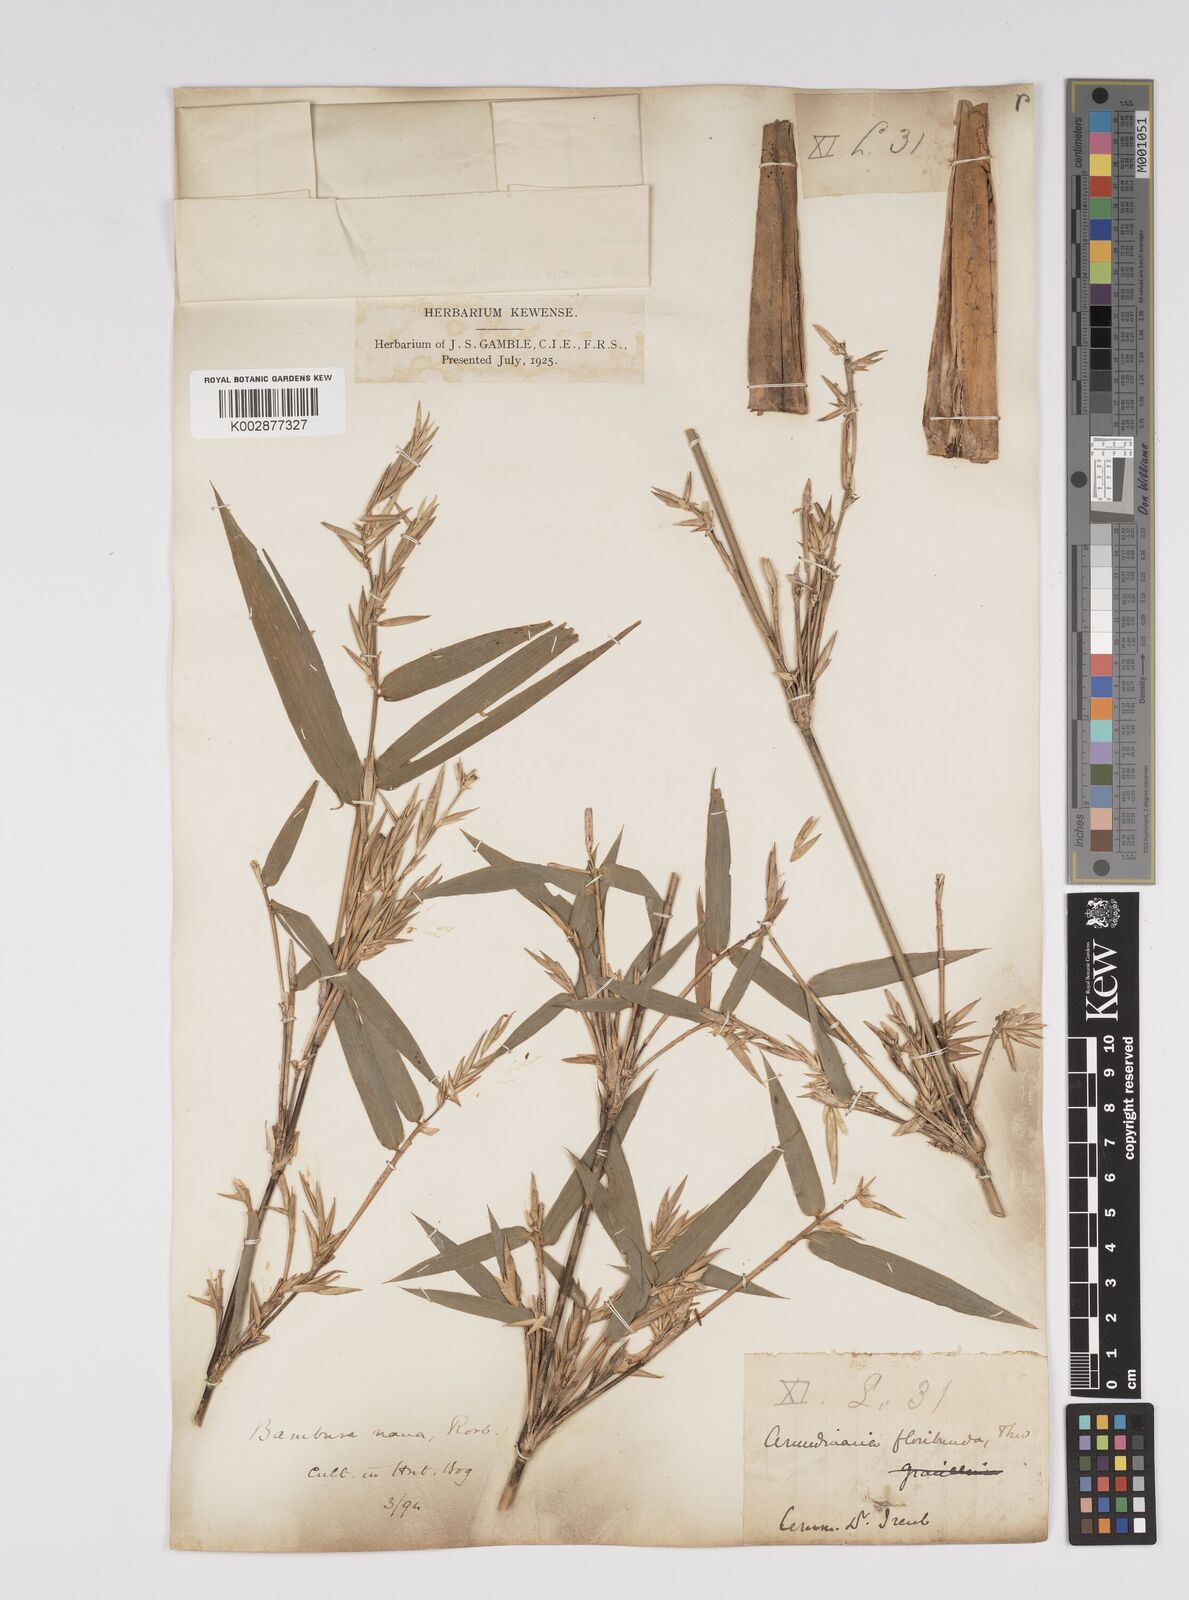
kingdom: Plantae
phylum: Tracheophyta
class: Liliopsida
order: Poales
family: Poaceae
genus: Bambusa
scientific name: Bambusa multiplex
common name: Hedge bamboo
